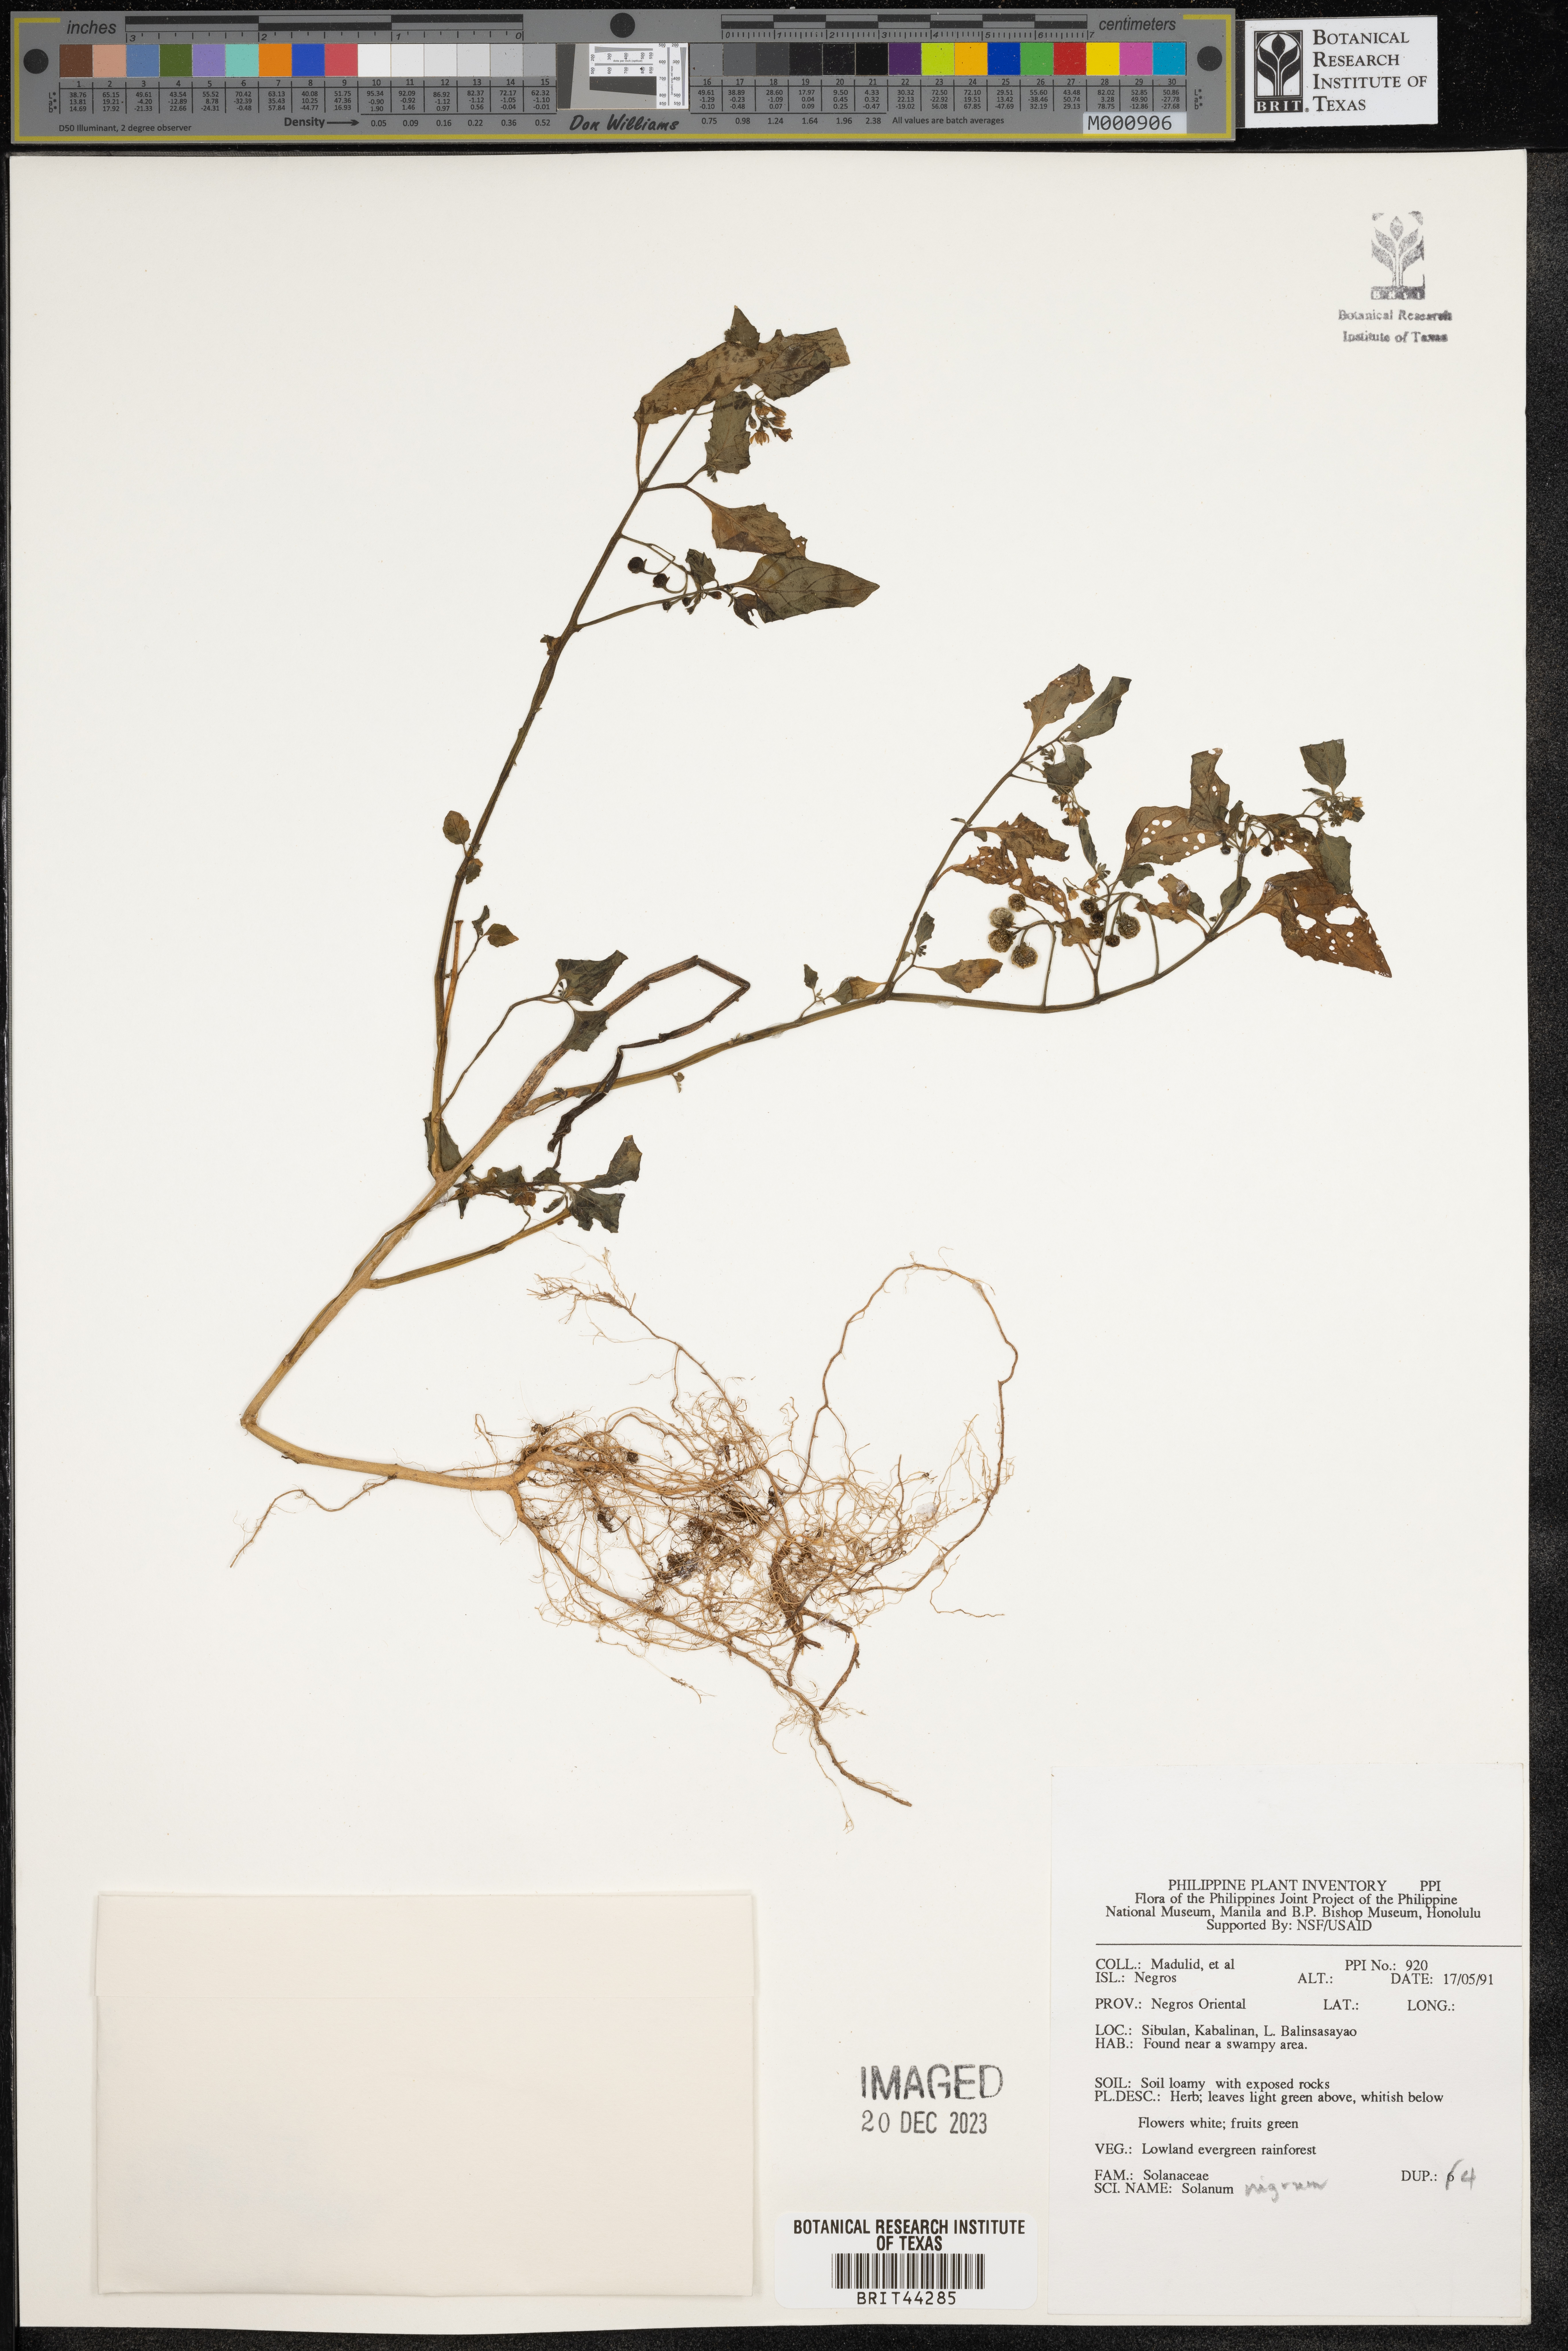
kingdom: Plantae
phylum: Tracheophyta
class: Magnoliopsida
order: Solanales
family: Solanaceae
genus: Solanum
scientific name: Solanum nigrum
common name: Black nightshade
